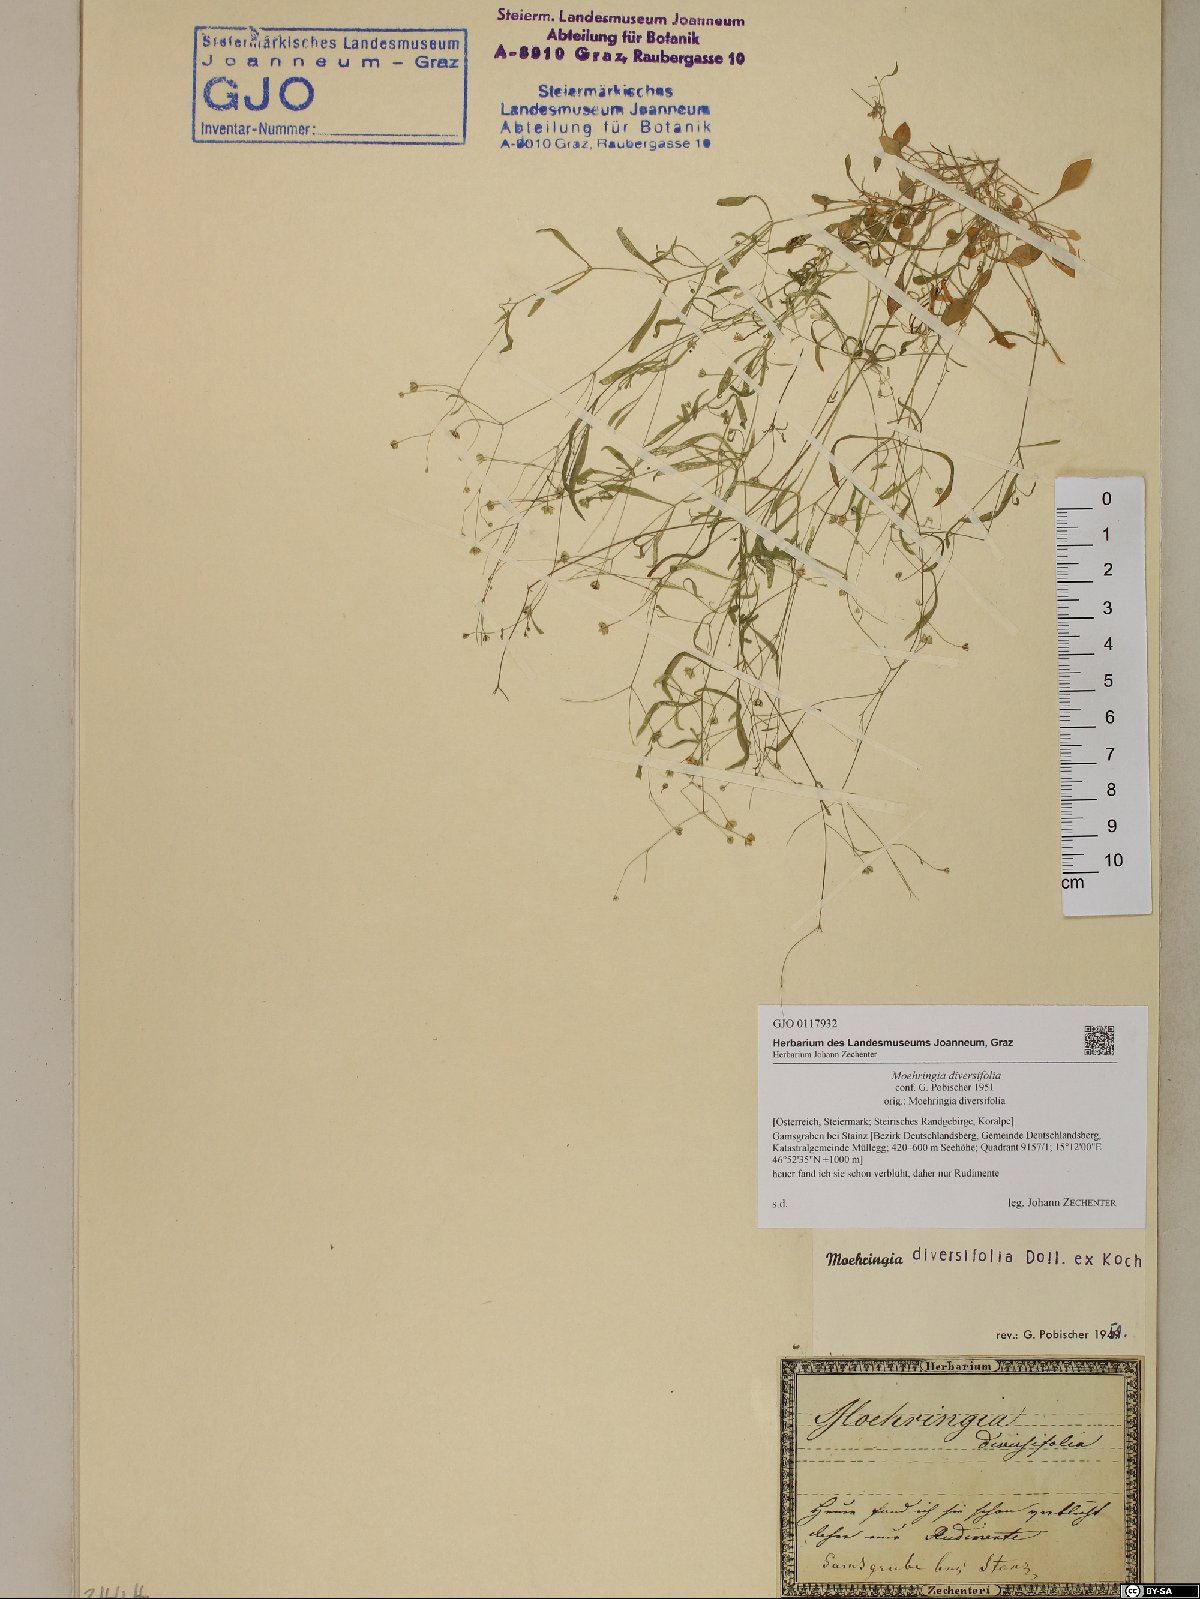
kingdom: Plantae
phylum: Tracheophyta
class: Magnoliopsida
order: Caryophyllales
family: Caryophyllaceae
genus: Moehringia
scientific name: Moehringia diversifolia
